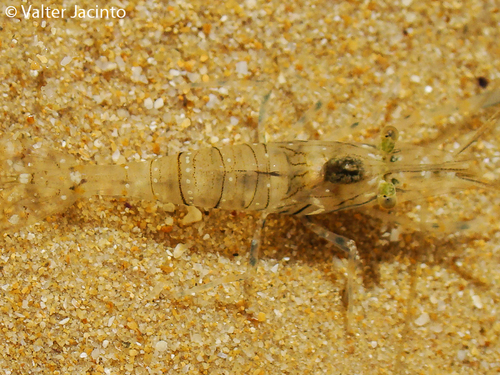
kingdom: Animalia
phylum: Arthropoda
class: Malacostraca
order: Decapoda
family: Palaemonidae
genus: Palaemon
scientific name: Palaemon elegans
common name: Grass prawm
